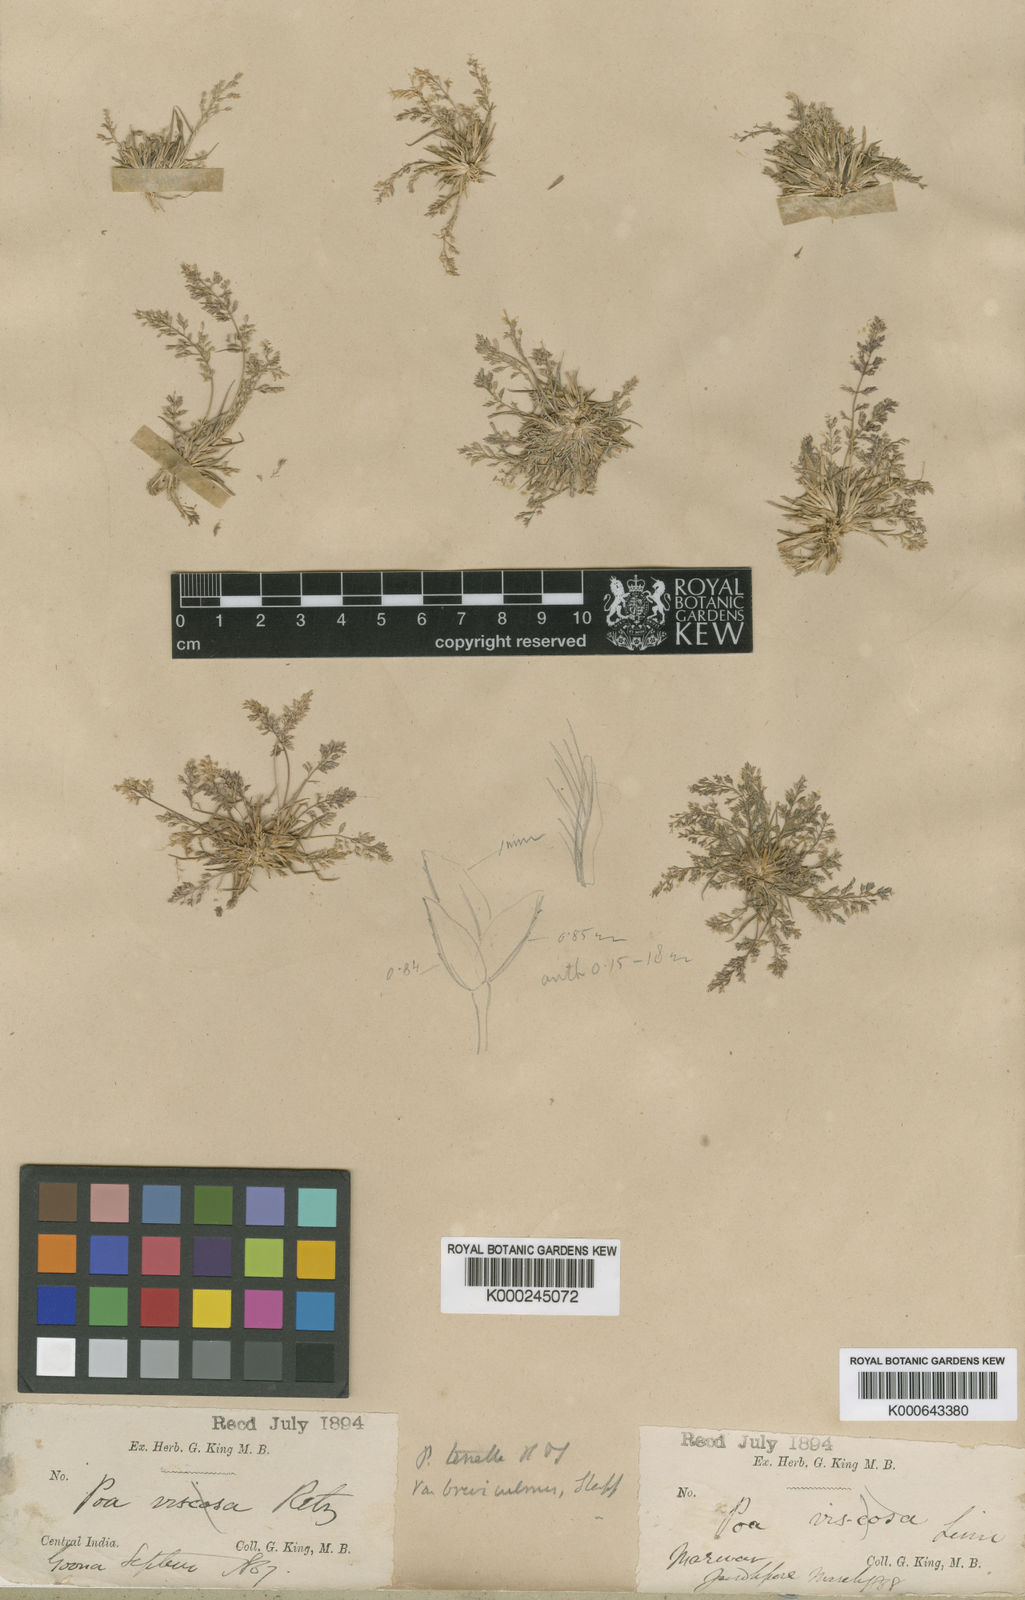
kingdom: Plantae
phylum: Tracheophyta
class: Liliopsida
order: Poales
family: Poaceae
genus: Eragrostis
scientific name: Eragrostis tenella
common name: Japanese lovegrass
